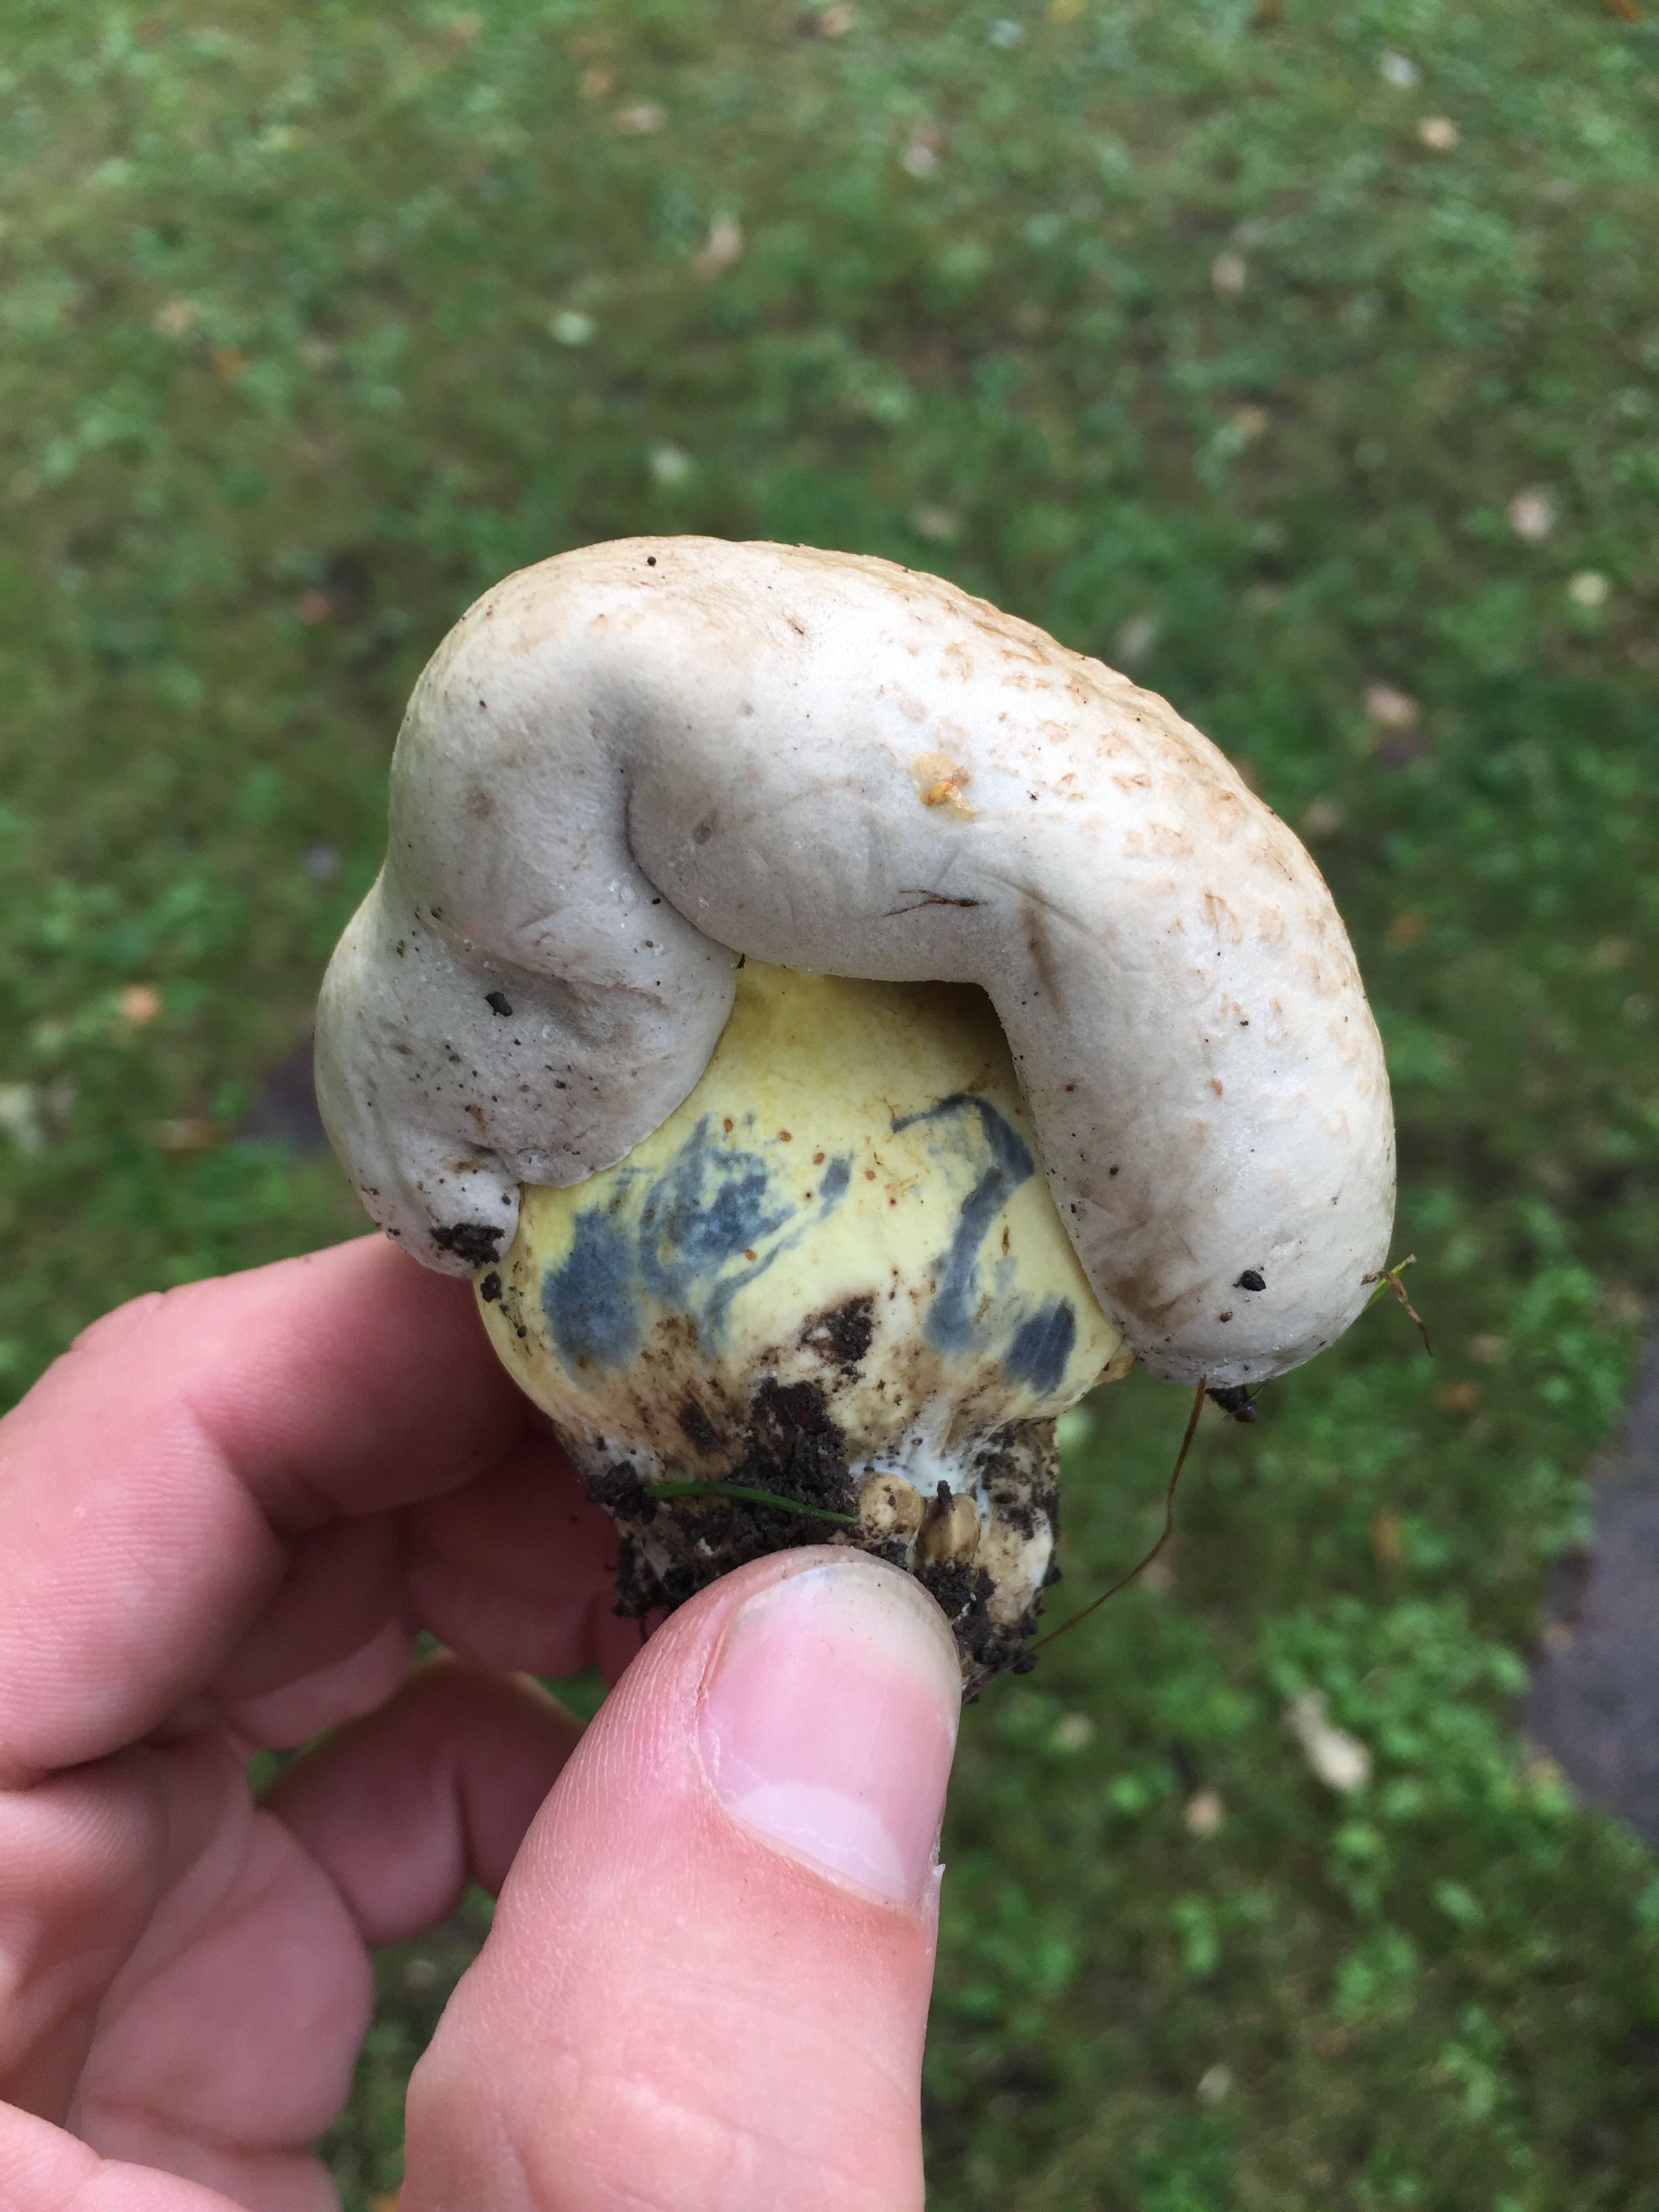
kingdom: Fungi
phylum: Basidiomycota
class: Agaricomycetes
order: Boletales
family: Boletaceae
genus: Caloboletus
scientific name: Caloboletus radicans
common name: rod-rørhat
